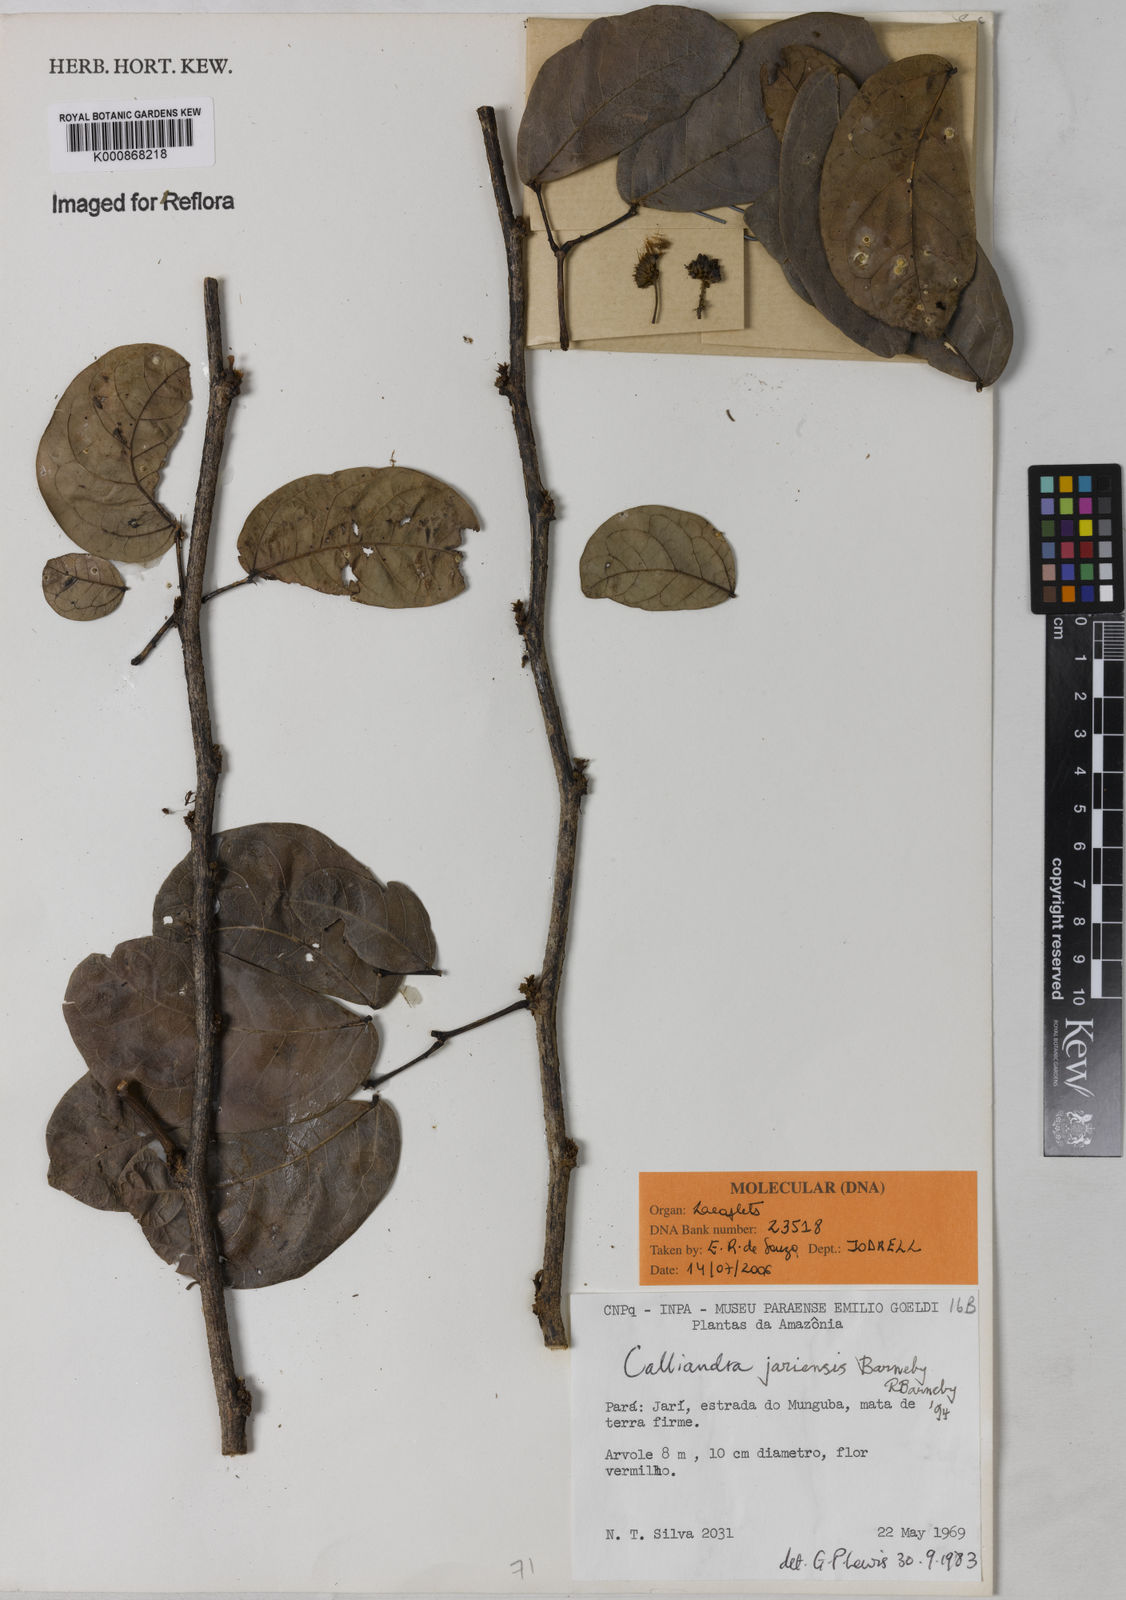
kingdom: Plantae
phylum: Tracheophyta
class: Magnoliopsida
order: Fabales
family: Fabaceae
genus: Calliandra
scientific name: Calliandra jariensis
